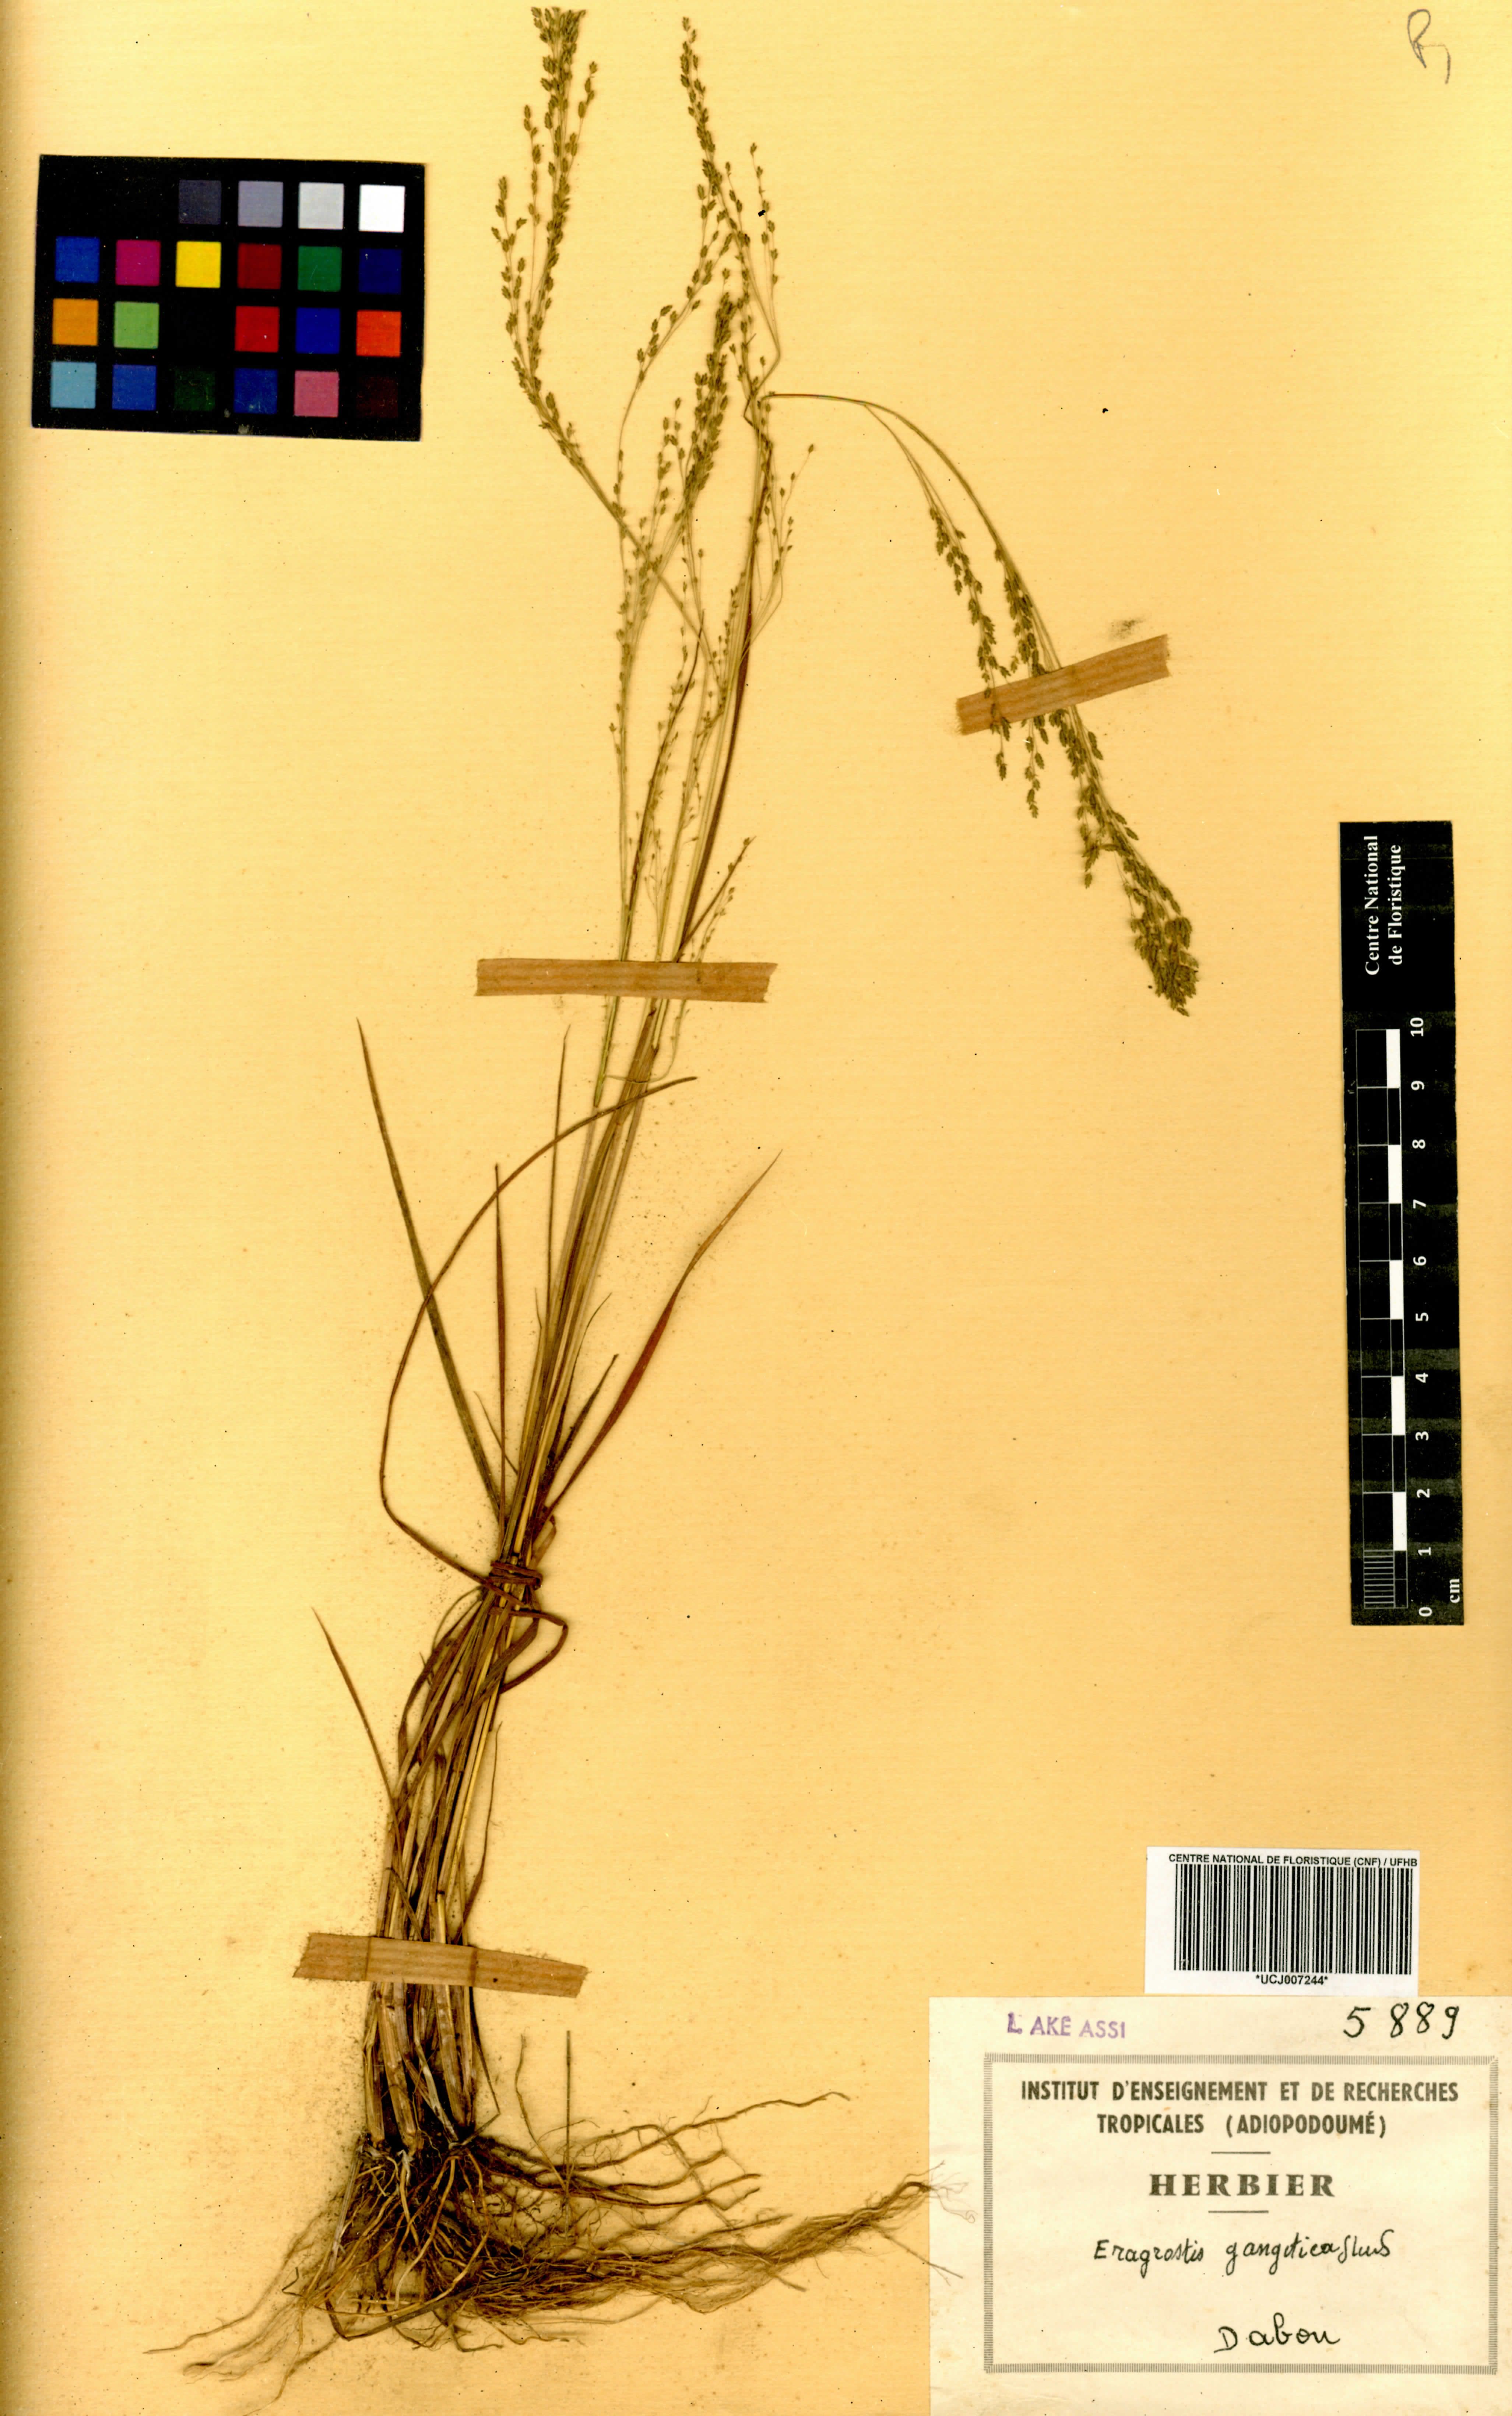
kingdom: Plantae
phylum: Tracheophyta
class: Liliopsida
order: Poales
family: Poaceae
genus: Eragrostis
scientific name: Eragrostis gangetica
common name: Slimflower lovegrass
